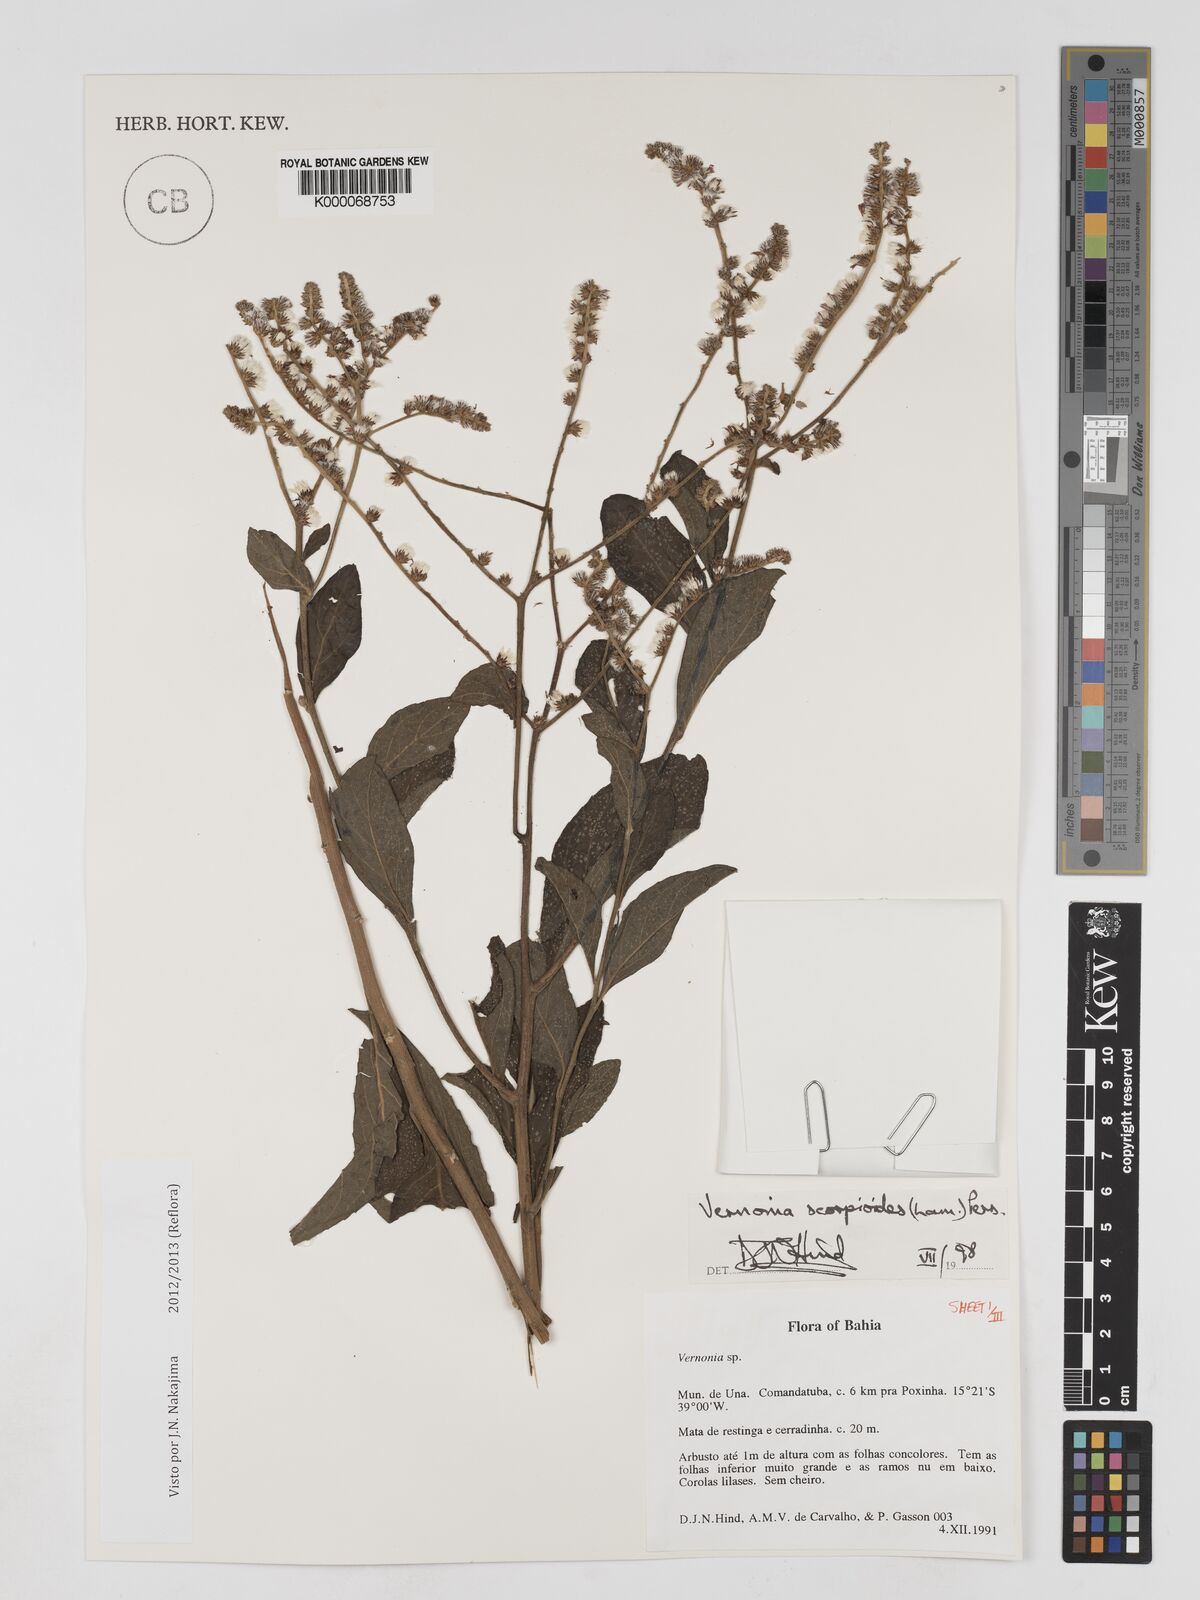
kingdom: Plantae
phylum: Tracheophyta
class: Magnoliopsida
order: Asterales
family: Asteraceae
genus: Cyrtocymura
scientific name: Cyrtocymura scorpioides
